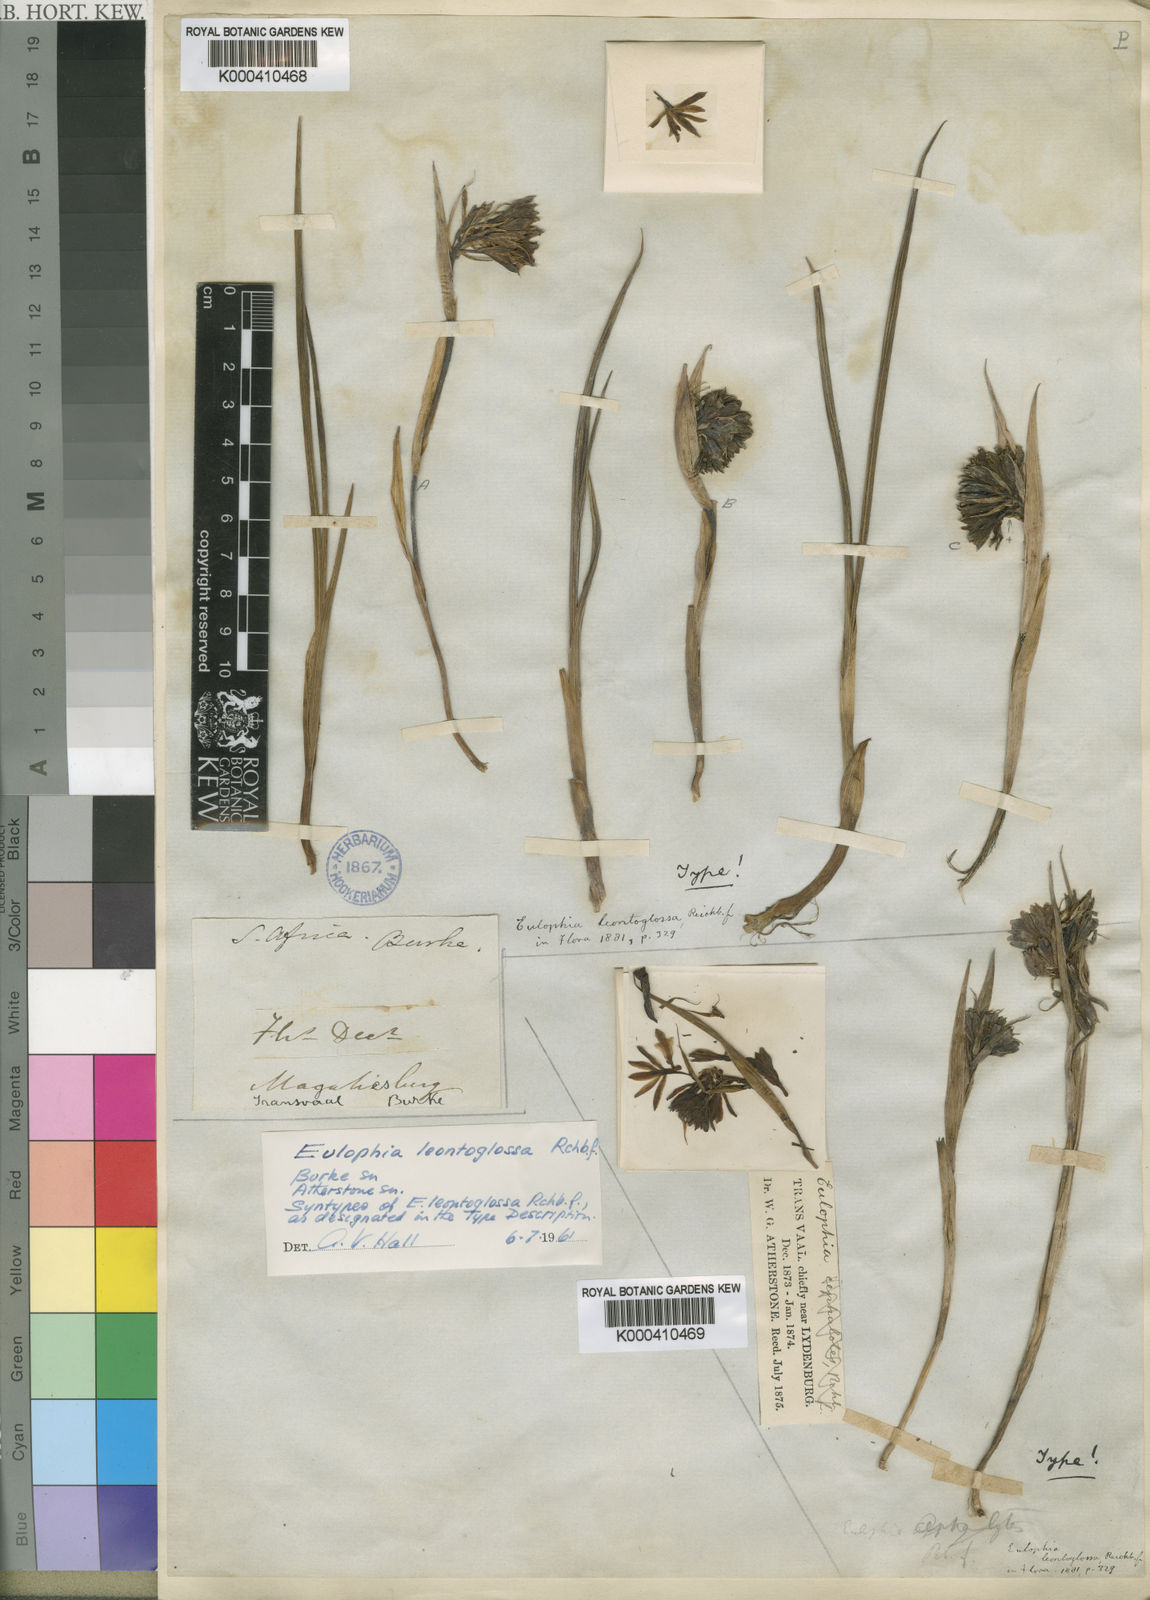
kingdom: Plantae
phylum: Tracheophyta
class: Liliopsida
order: Asparagales
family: Orchidaceae
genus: Eulophia
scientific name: Eulophia leontoglossa
